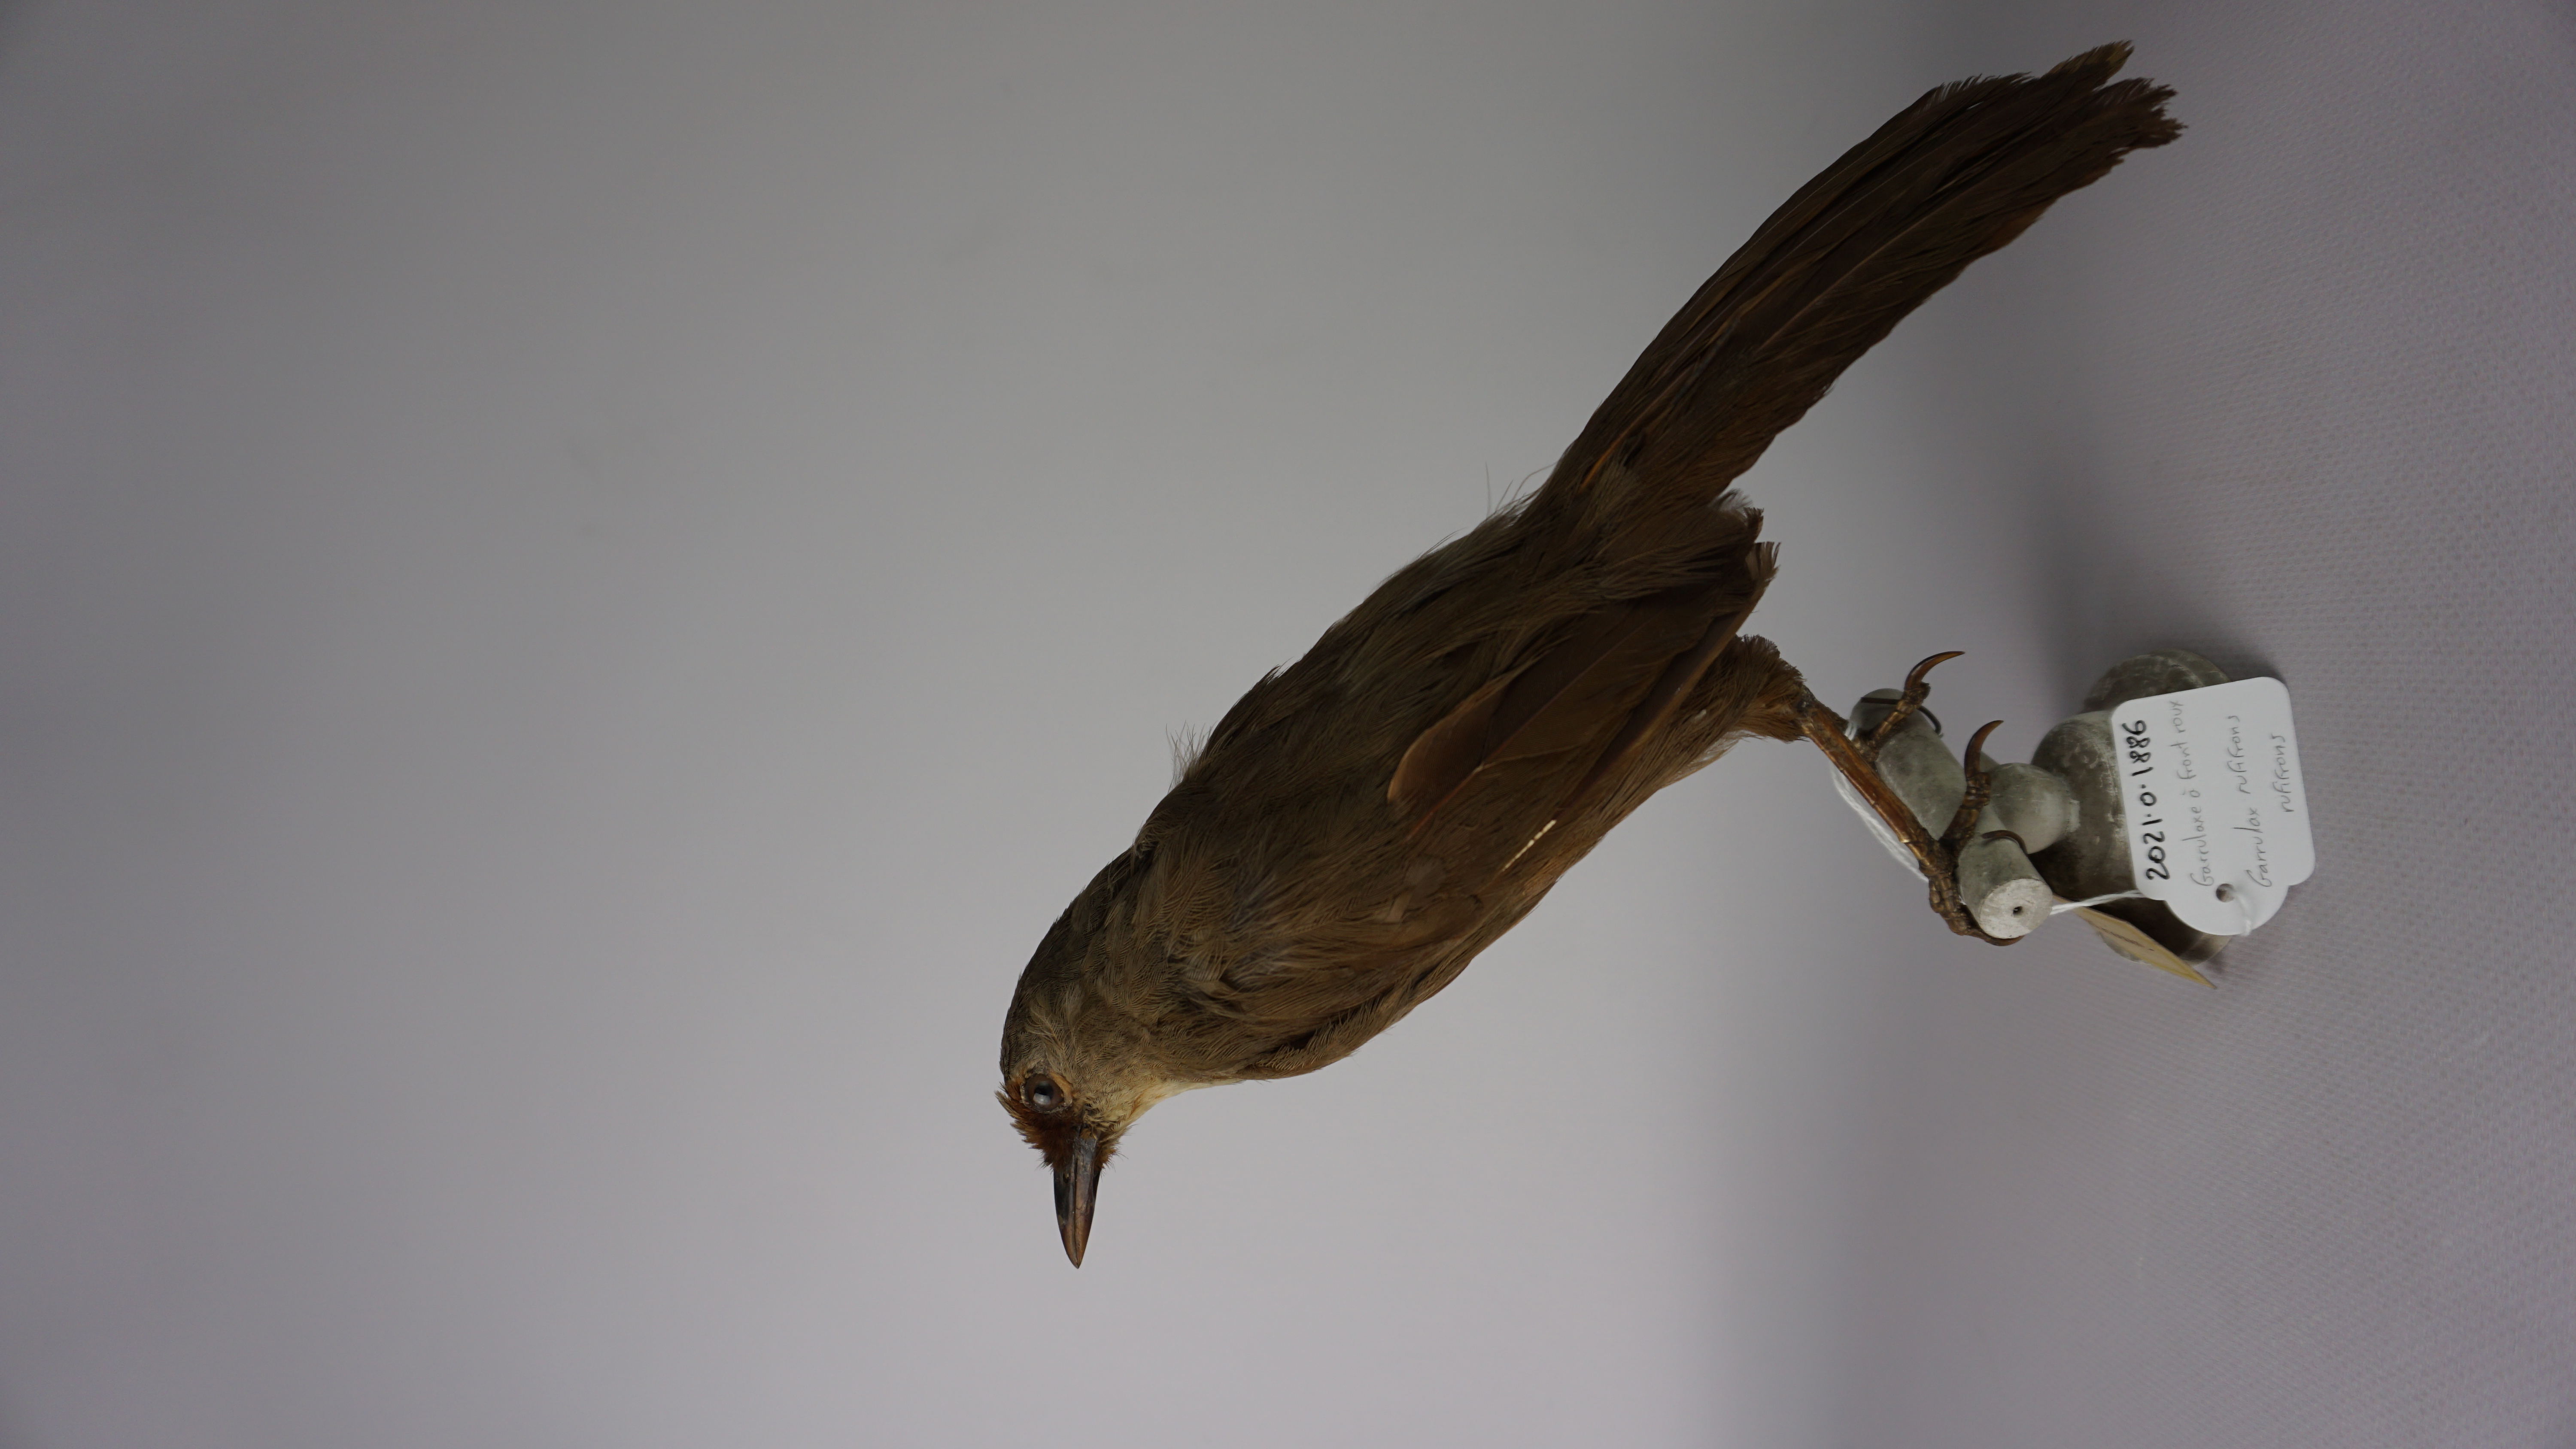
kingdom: Animalia
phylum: Chordata
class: Aves
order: Passeriformes
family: Leiothrichidae
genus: Garrulax
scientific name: Garrulax rufifrons
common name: Rufous-fronted laughingthrush
